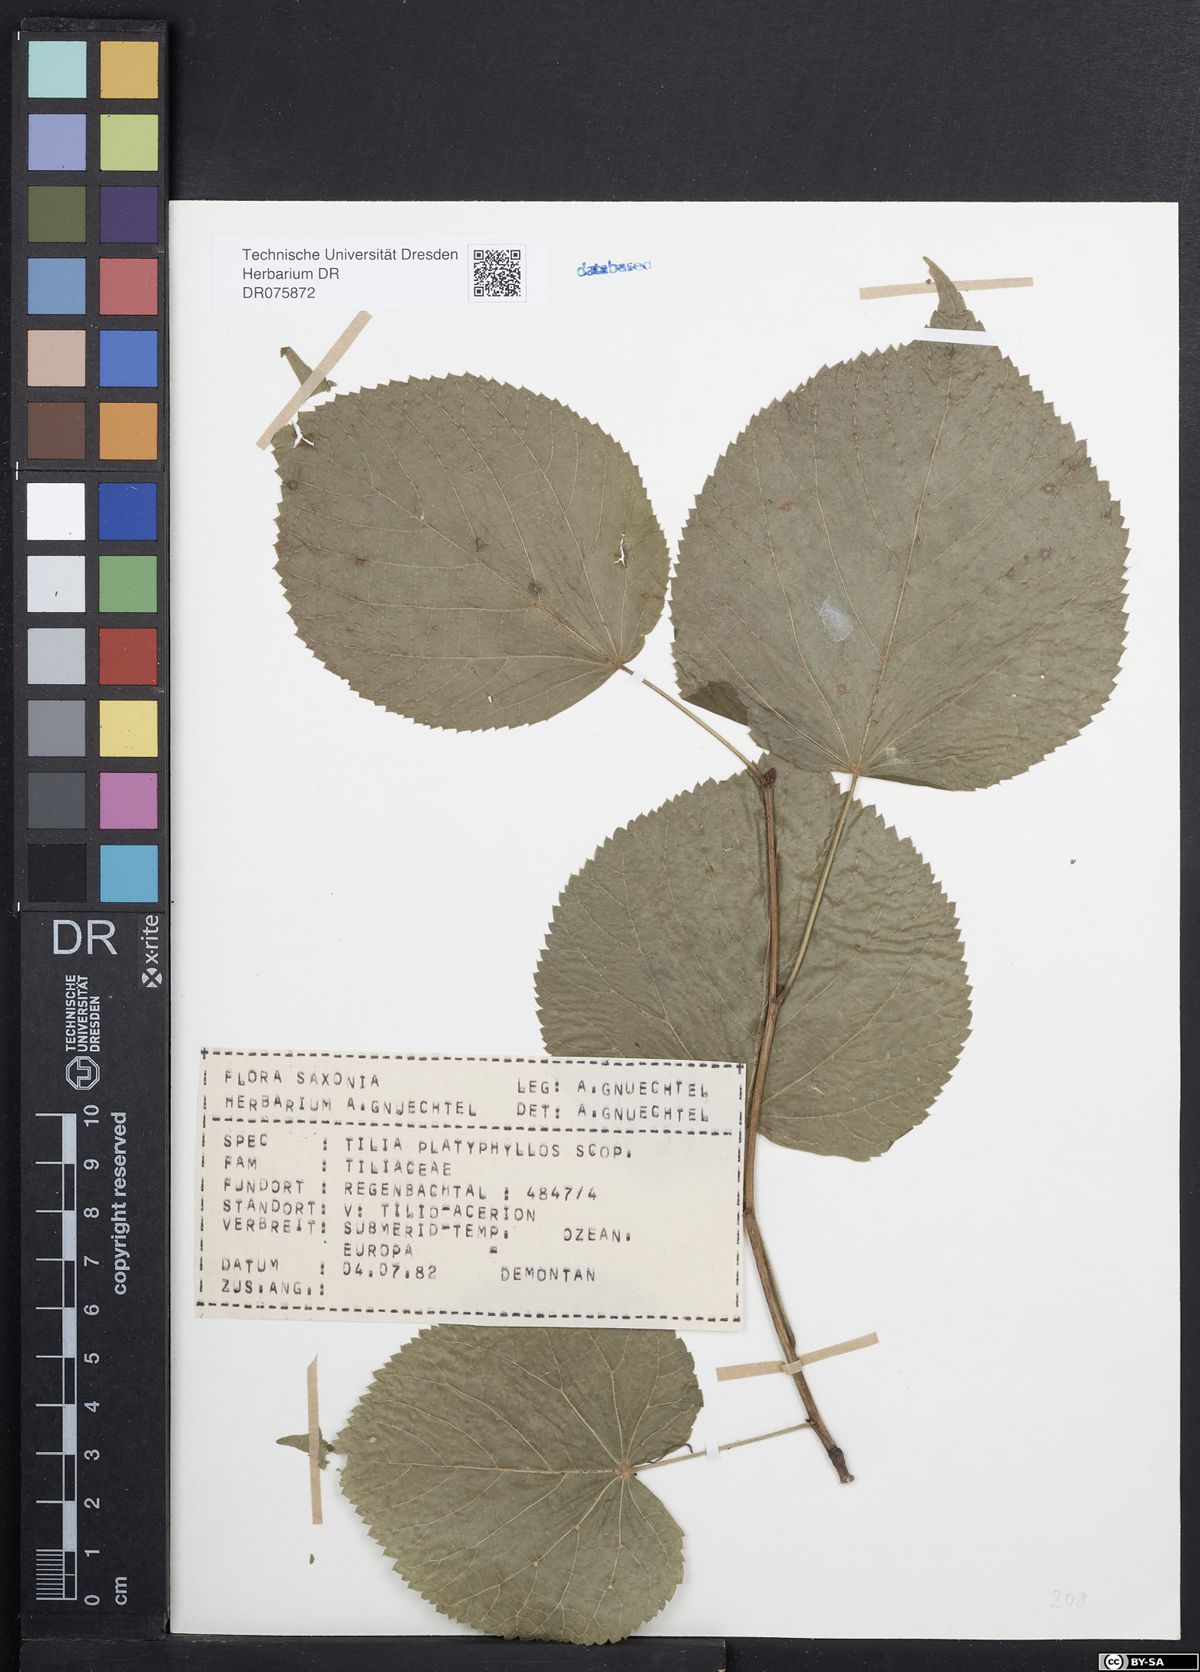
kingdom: Plantae
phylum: Tracheophyta
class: Magnoliopsida
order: Malvales
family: Malvaceae
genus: Tilia
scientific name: Tilia platyphyllos
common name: Large-leaved lime
